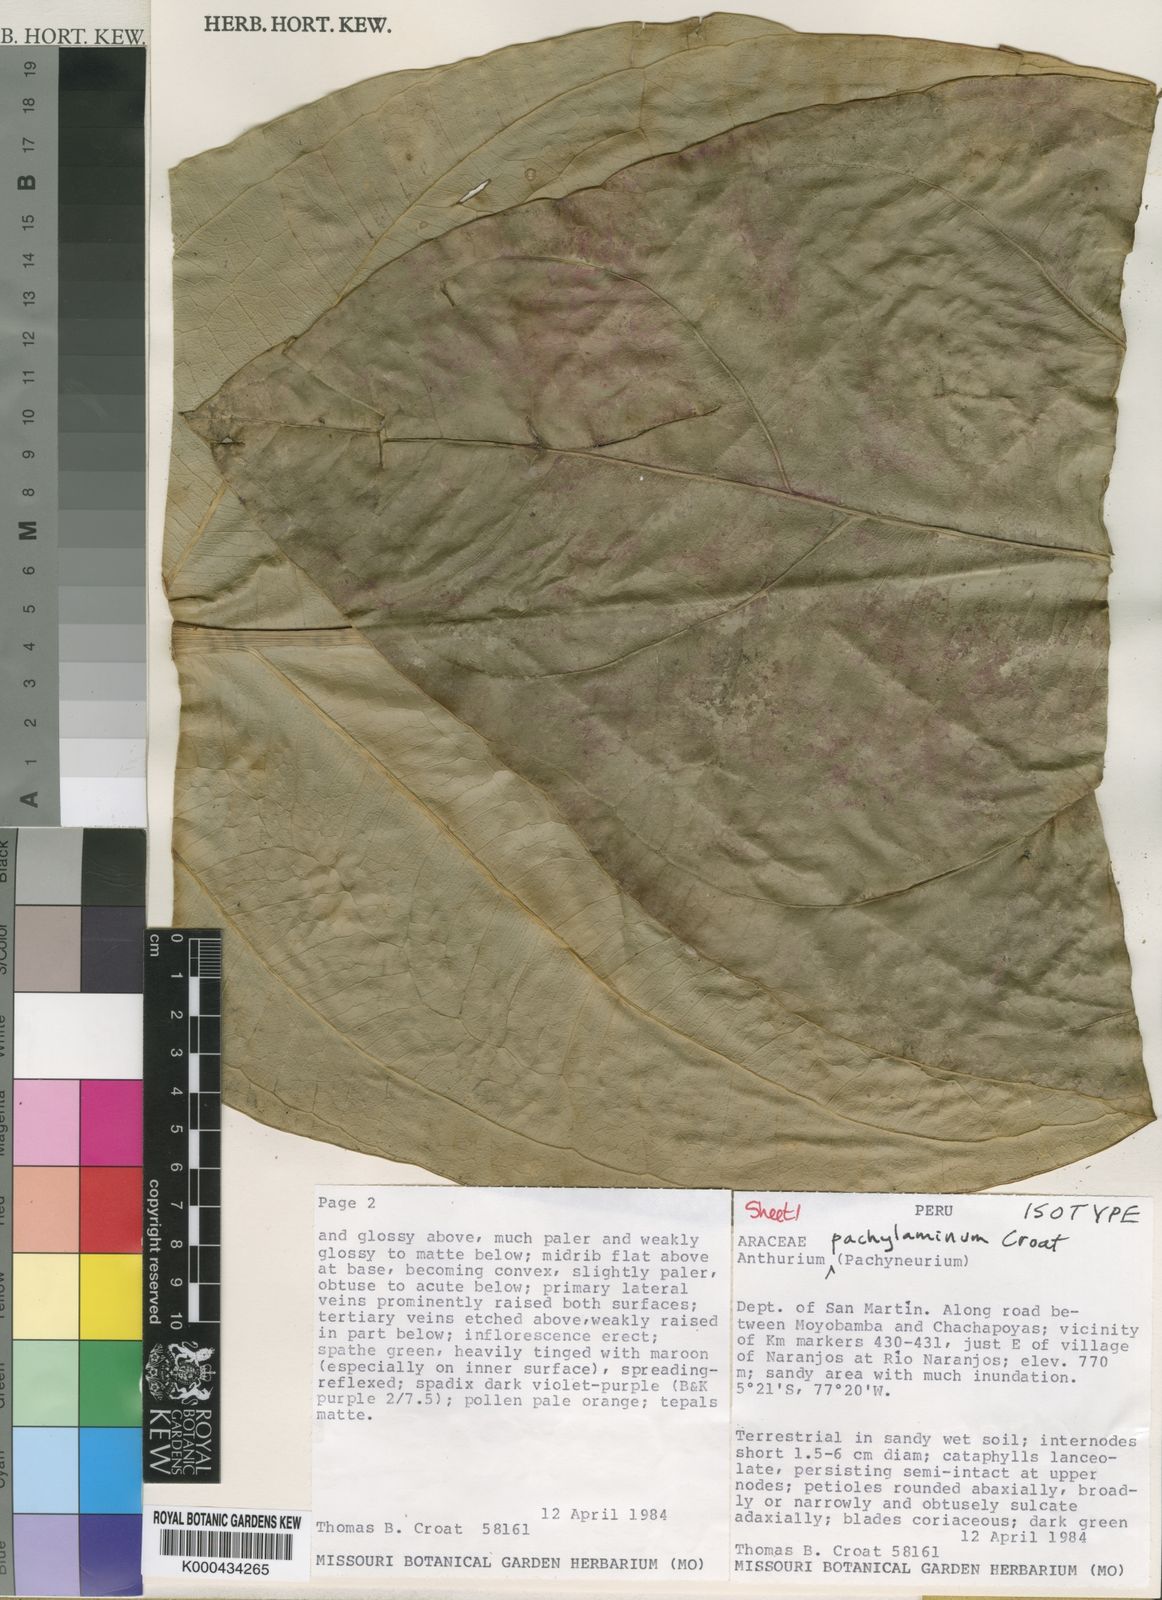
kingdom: Plantae
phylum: Tracheophyta
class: Liliopsida
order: Alismatales
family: Araceae
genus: Anthurium
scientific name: Anthurium pachylaminum
